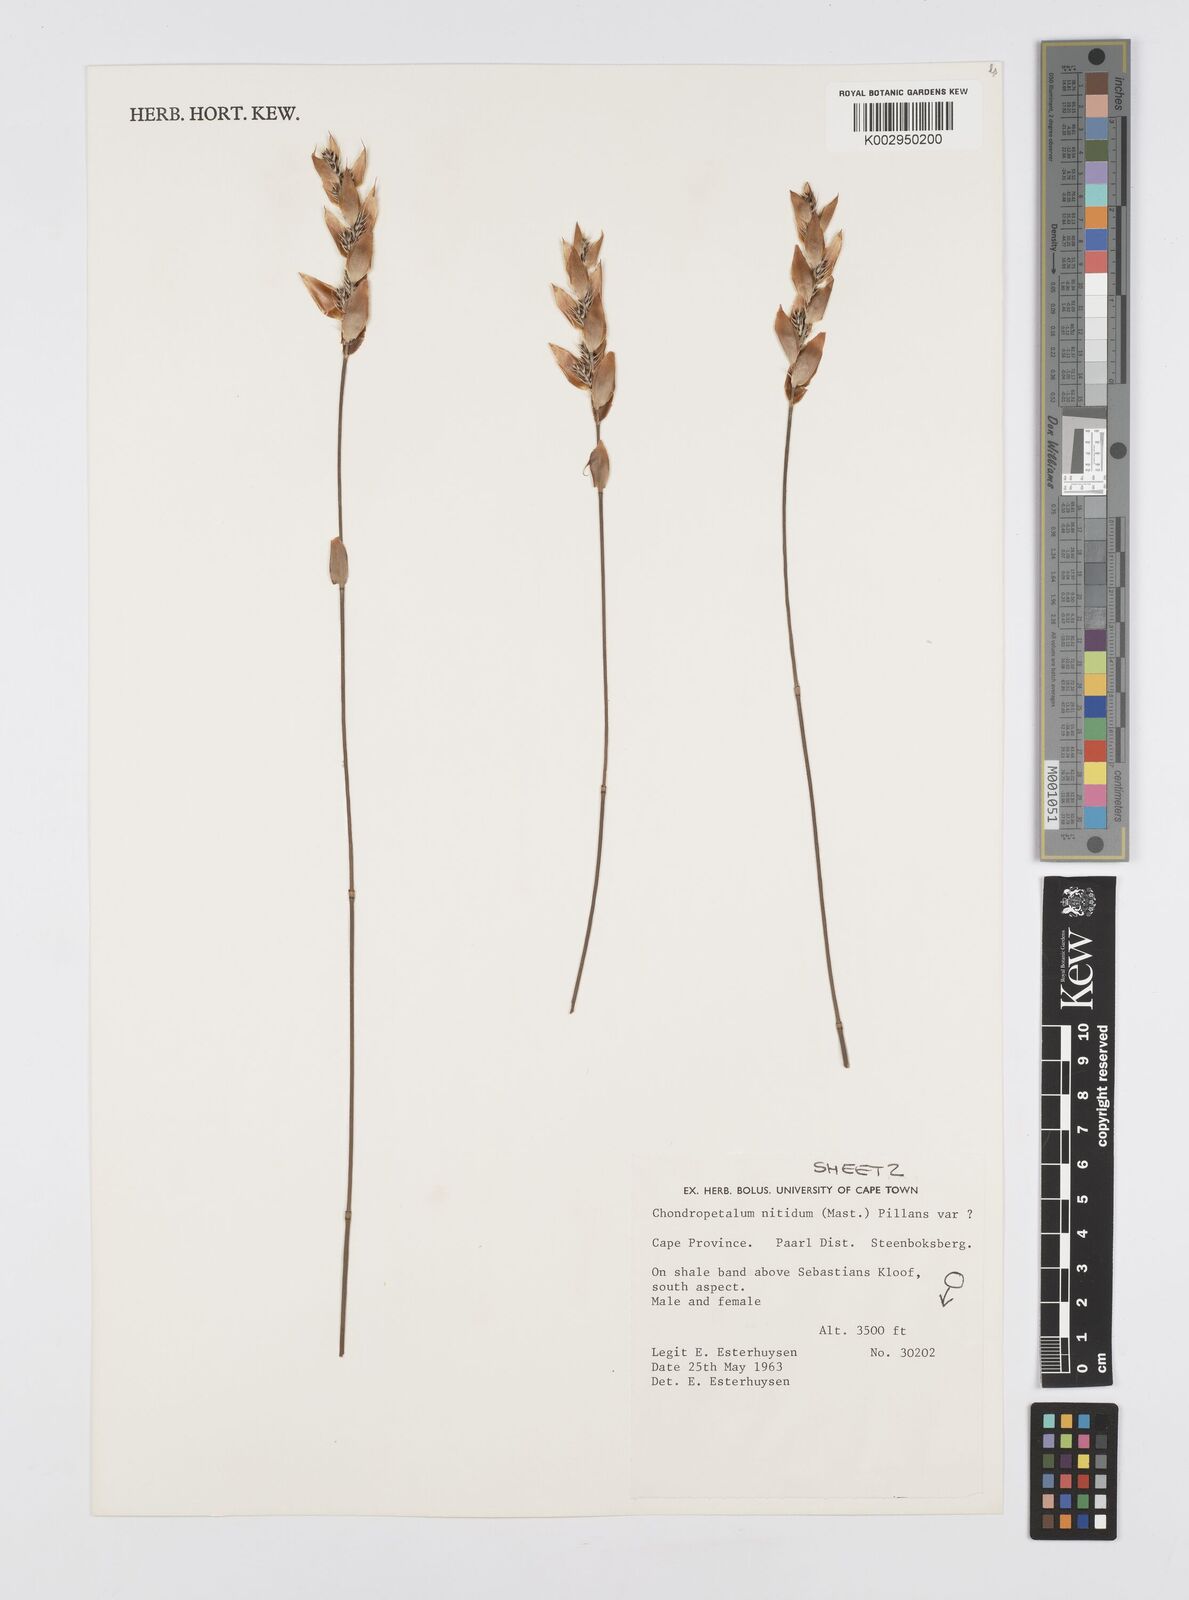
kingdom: Plantae
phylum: Tracheophyta
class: Liliopsida
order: Poales
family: Restionaceae
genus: Askidiosperma
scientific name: Askidiosperma nitidum
